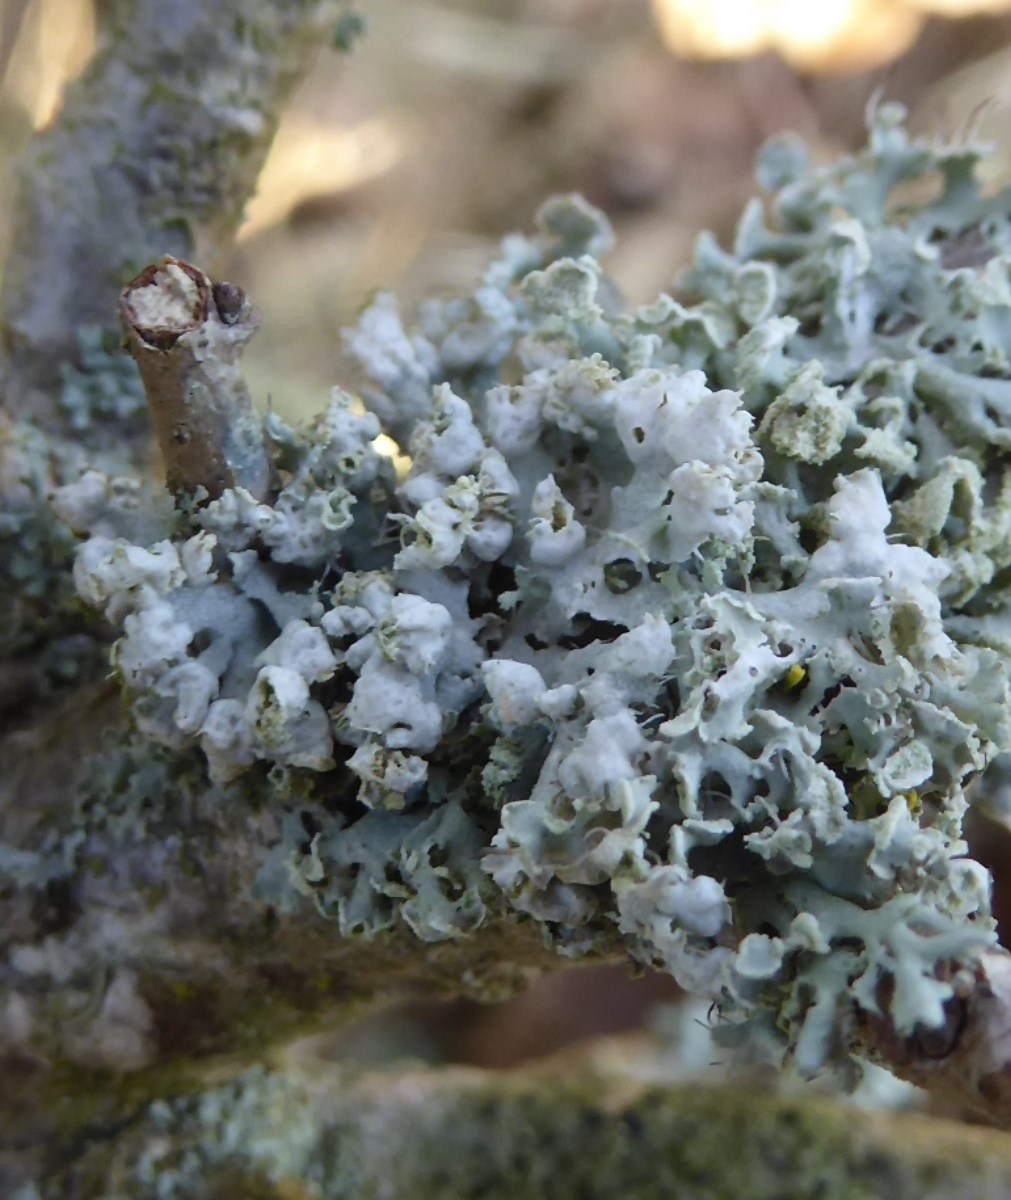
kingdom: Fungi
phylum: Ascomycota
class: Lecanoromycetes
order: Caliciales
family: Physciaceae
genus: Physcia
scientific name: Physcia adscendens
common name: hætte-rosetlav
